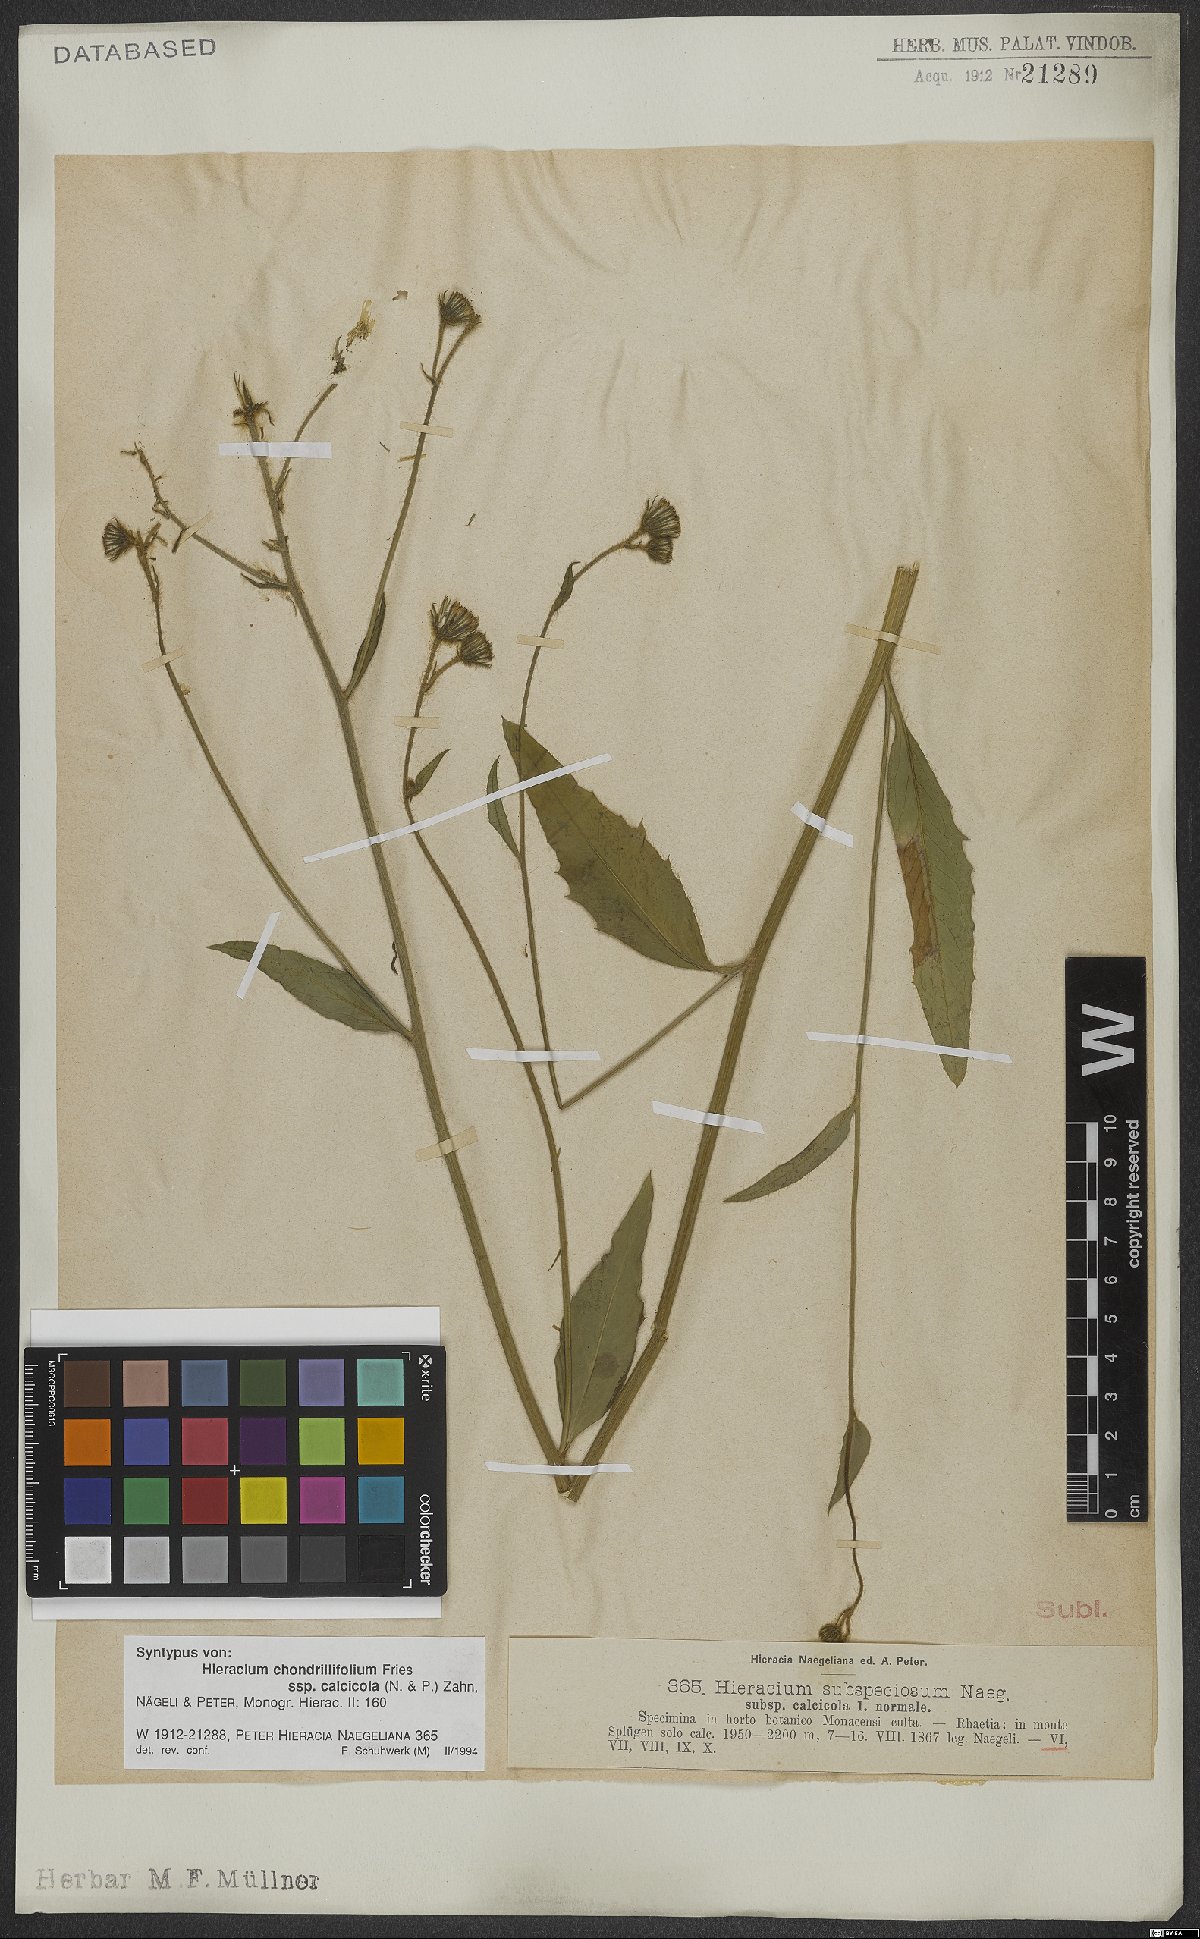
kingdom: Plantae
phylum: Tracheophyta
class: Magnoliopsida
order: Asterales
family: Asteraceae
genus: Hieracium
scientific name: Hieracium chondrillifolium
